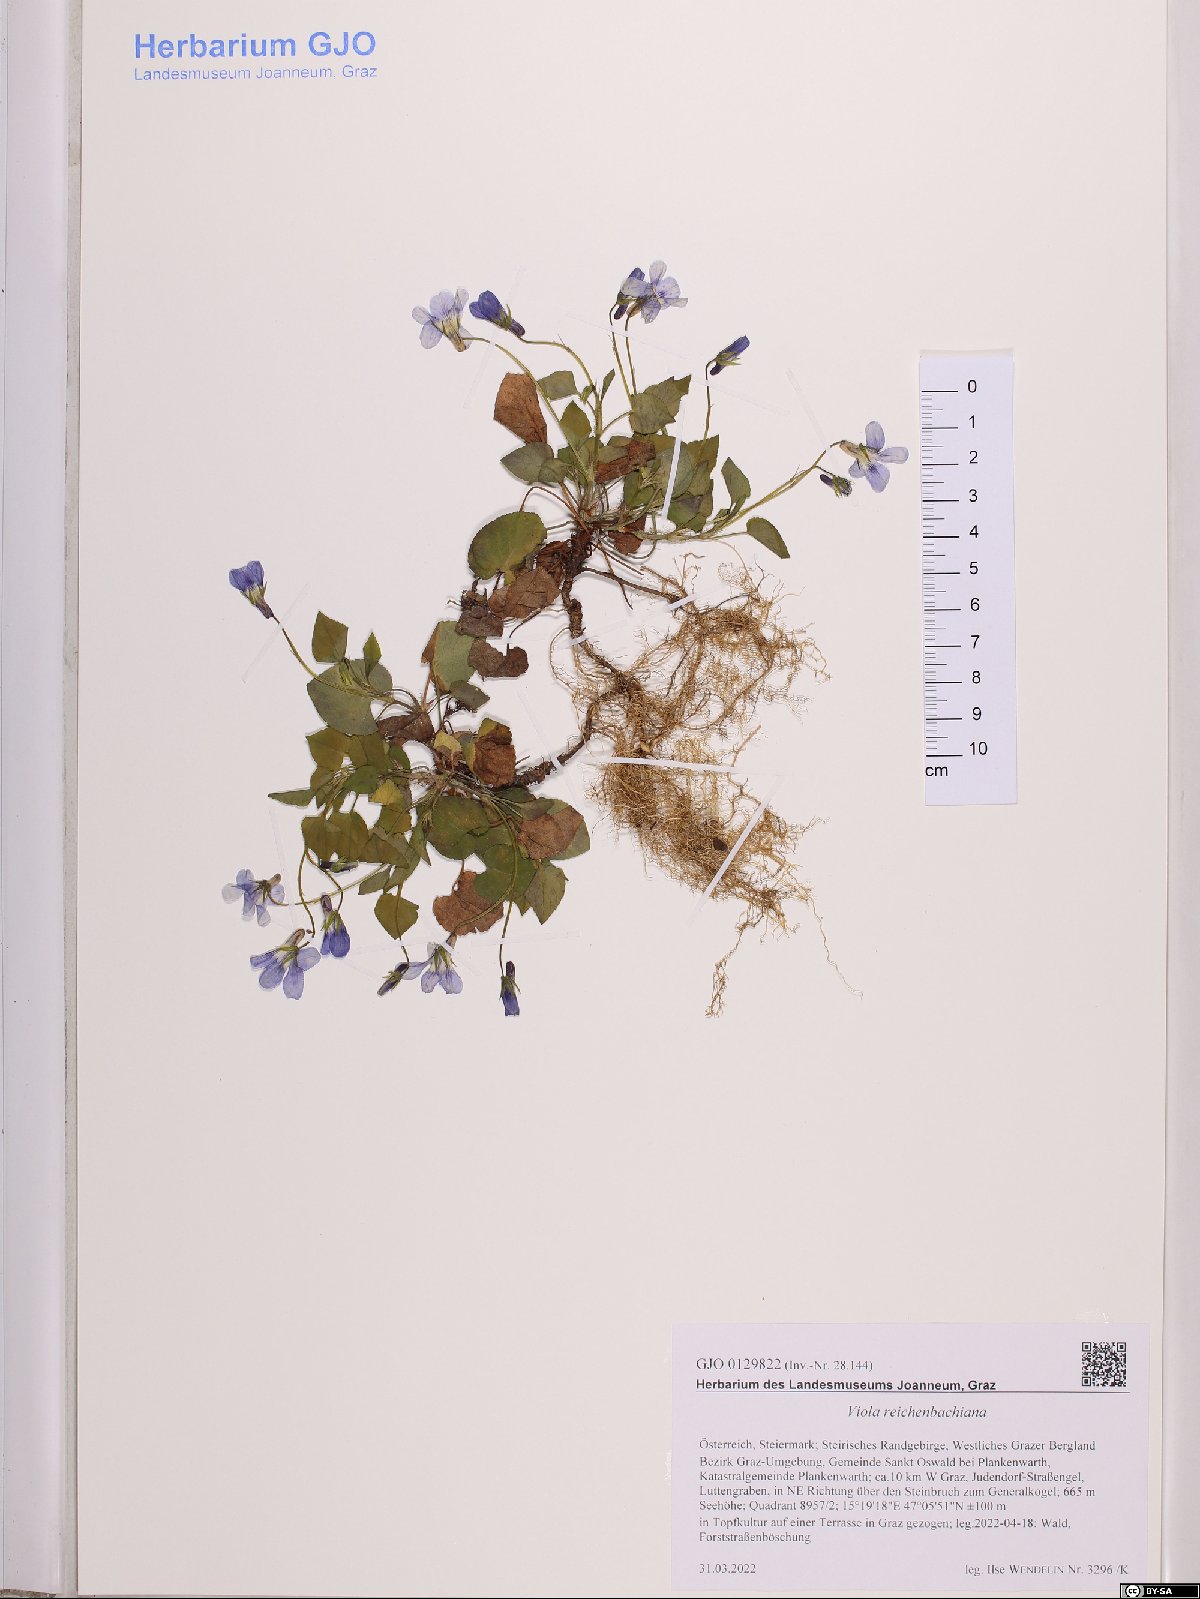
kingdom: Plantae
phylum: Tracheophyta
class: Magnoliopsida
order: Malpighiales
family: Violaceae
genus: Viola
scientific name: Viola reichenbachiana
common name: Early dog-violet
